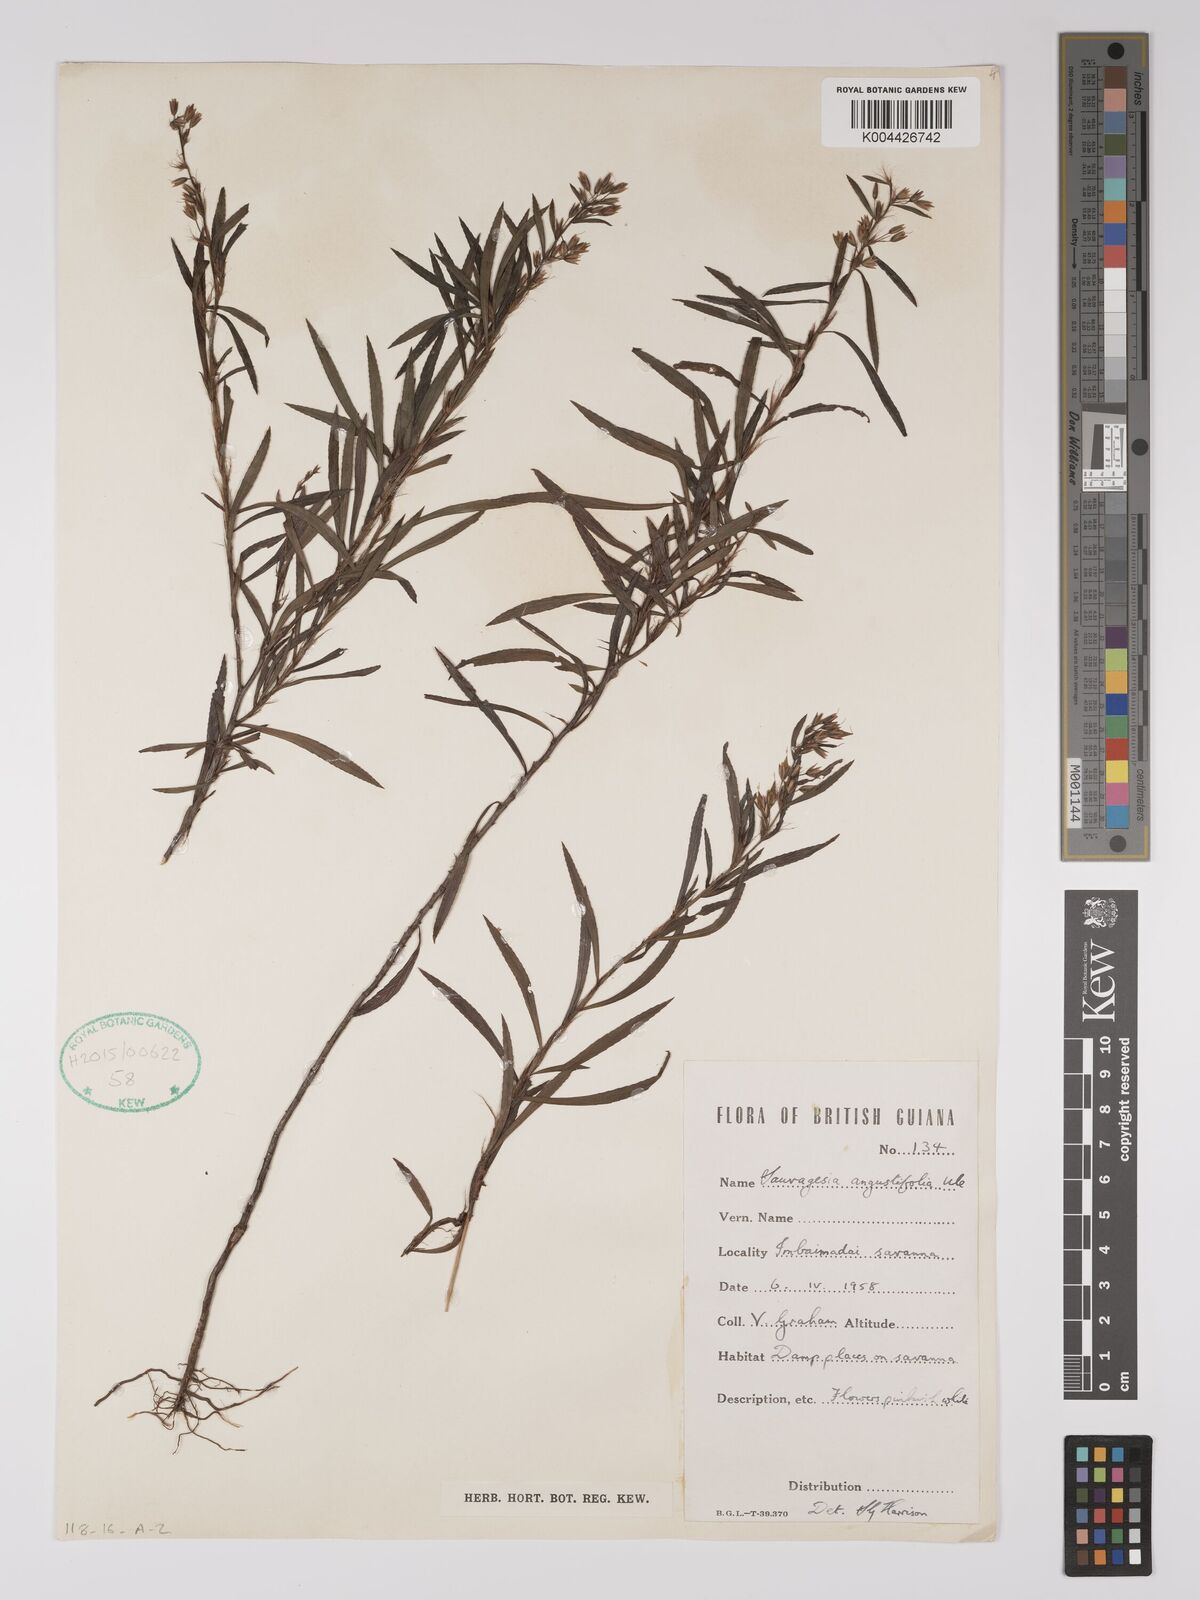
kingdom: Plantae
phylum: Tracheophyta
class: Magnoliopsida
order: Malpighiales
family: Ochnaceae
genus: Sauvagesia
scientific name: Sauvagesia angustifolia
